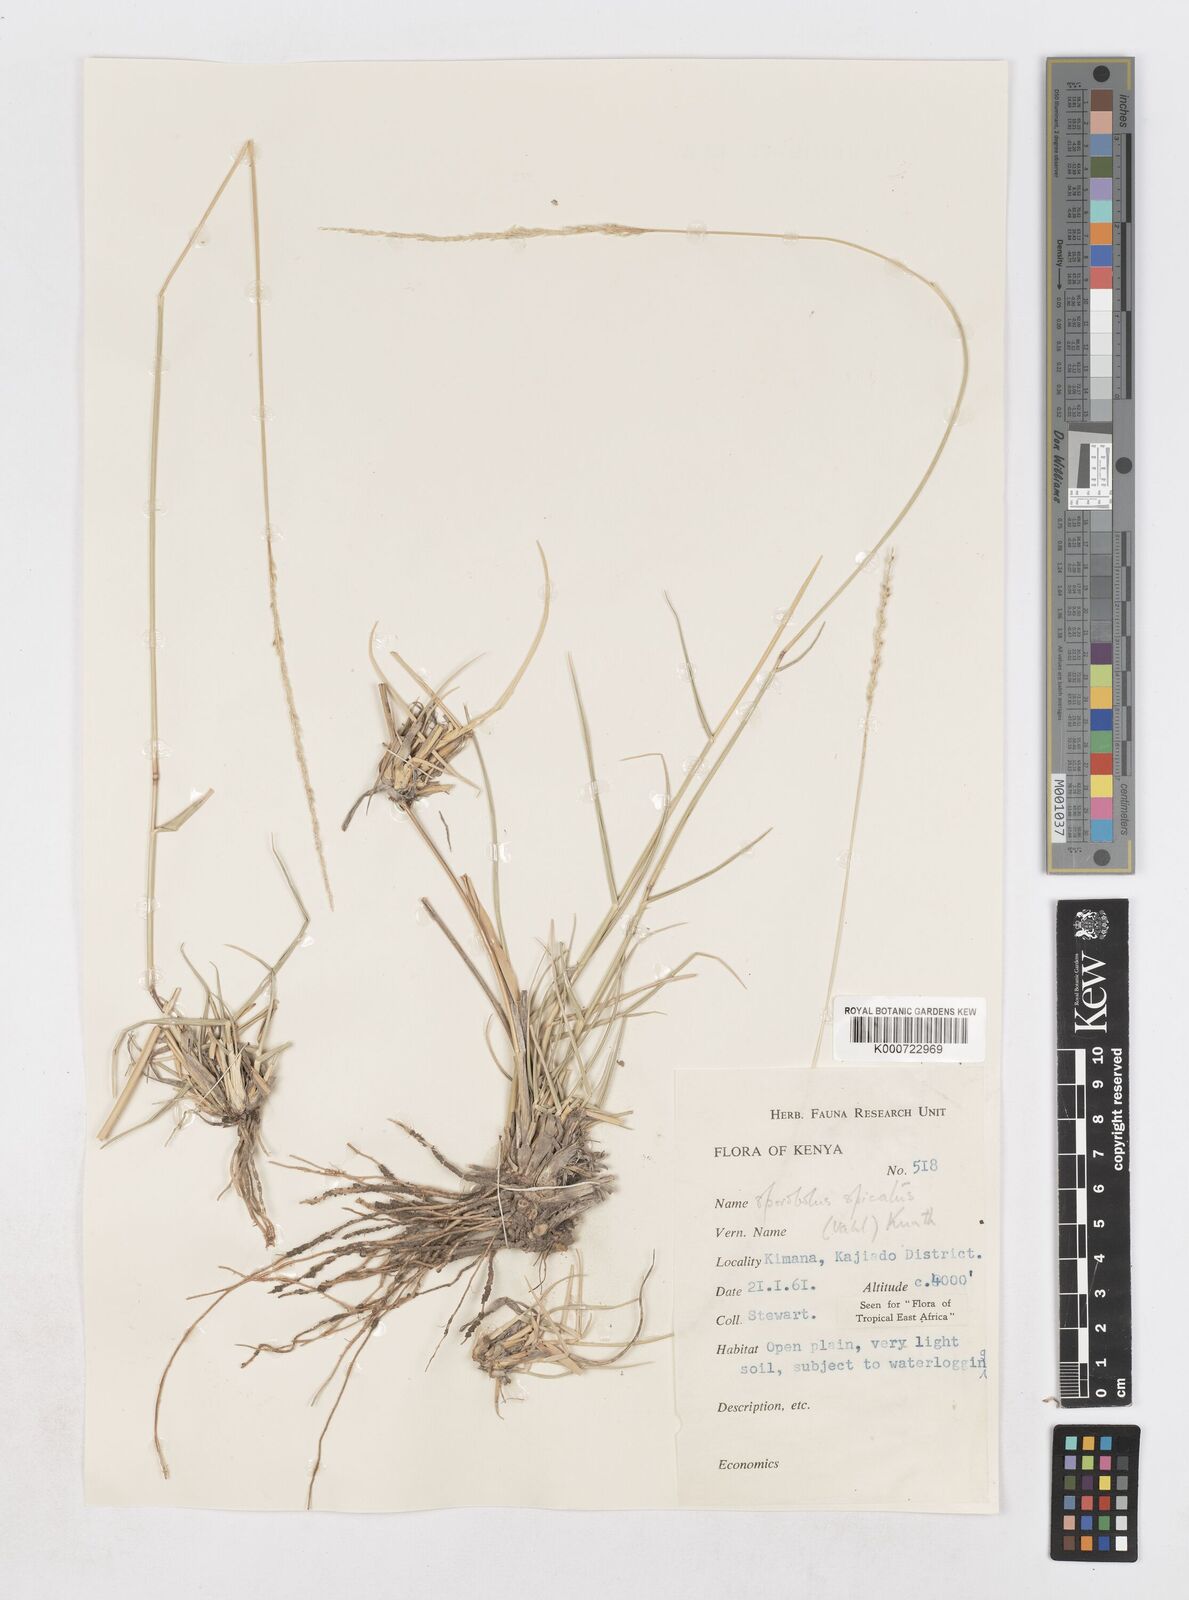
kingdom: Plantae
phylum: Tracheophyta
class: Liliopsida
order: Poales
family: Poaceae
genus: Sporobolus
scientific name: Sporobolus spicatus
